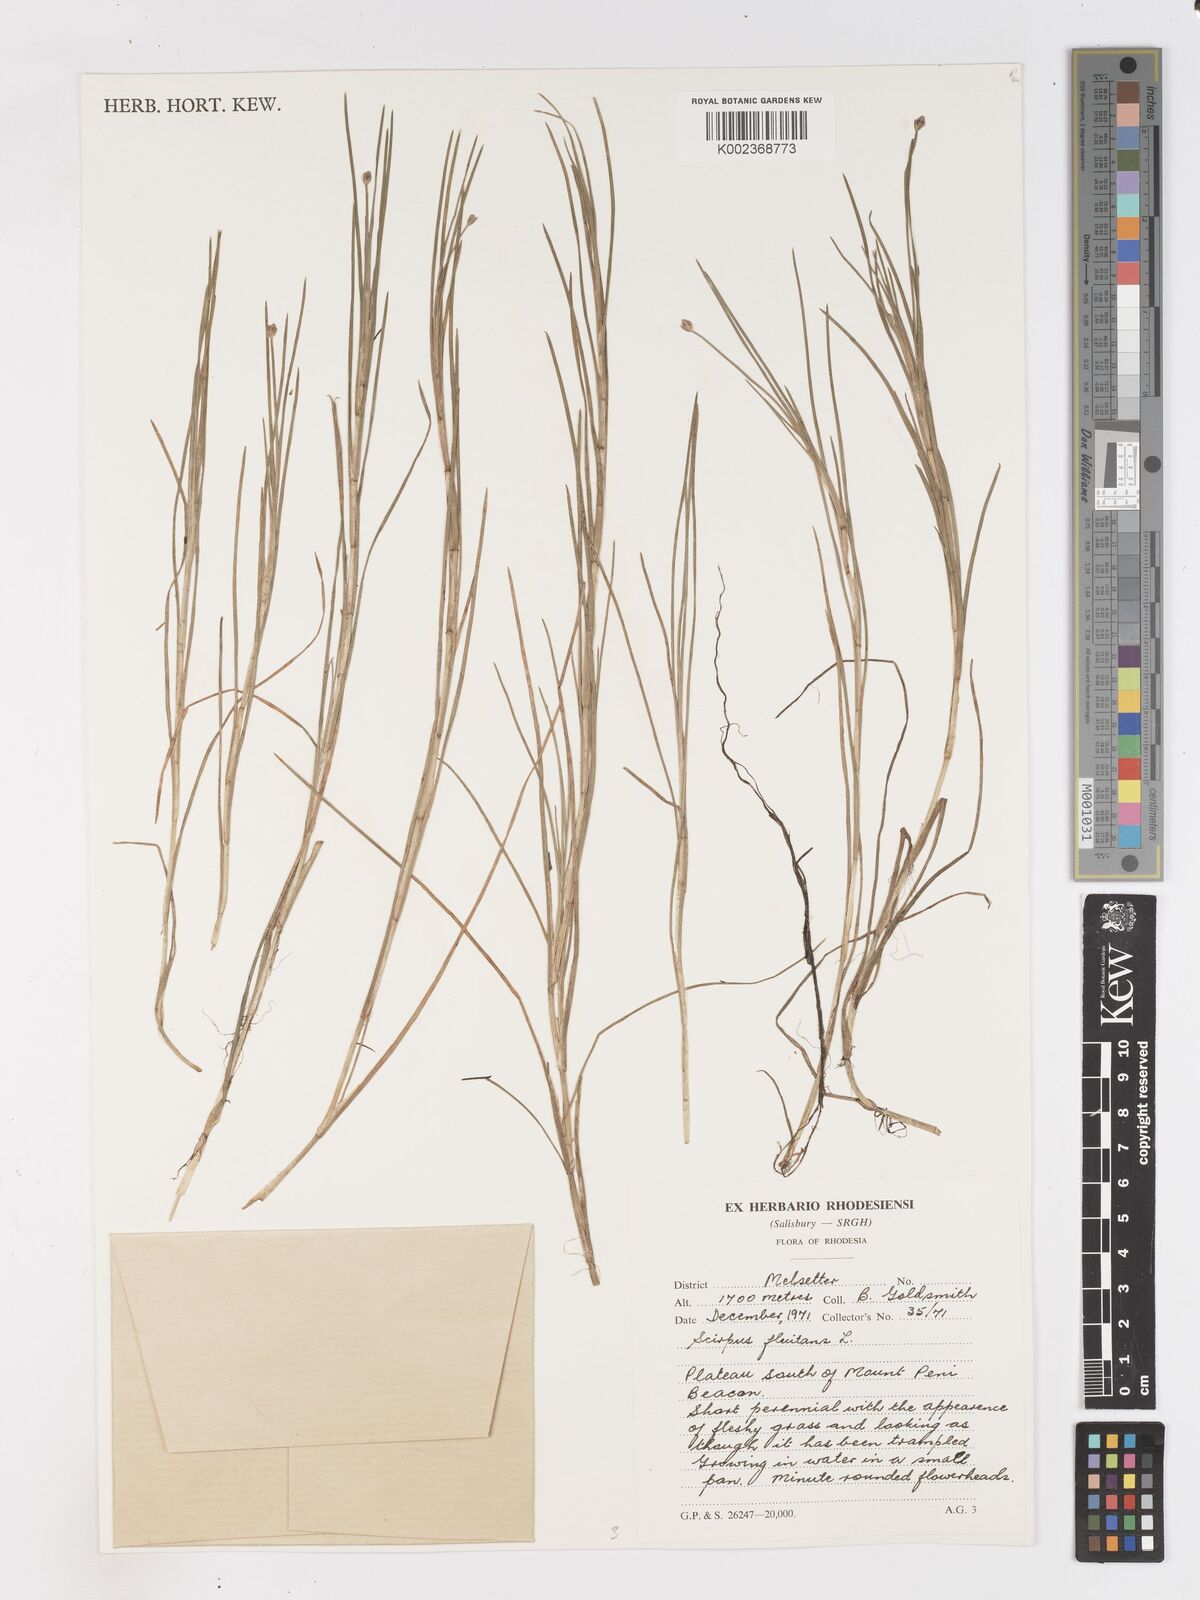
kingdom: Plantae
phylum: Tracheophyta
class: Liliopsida
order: Poales
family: Cyperaceae
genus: Isolepis
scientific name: Isolepis fluitans
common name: Floating club-rush
